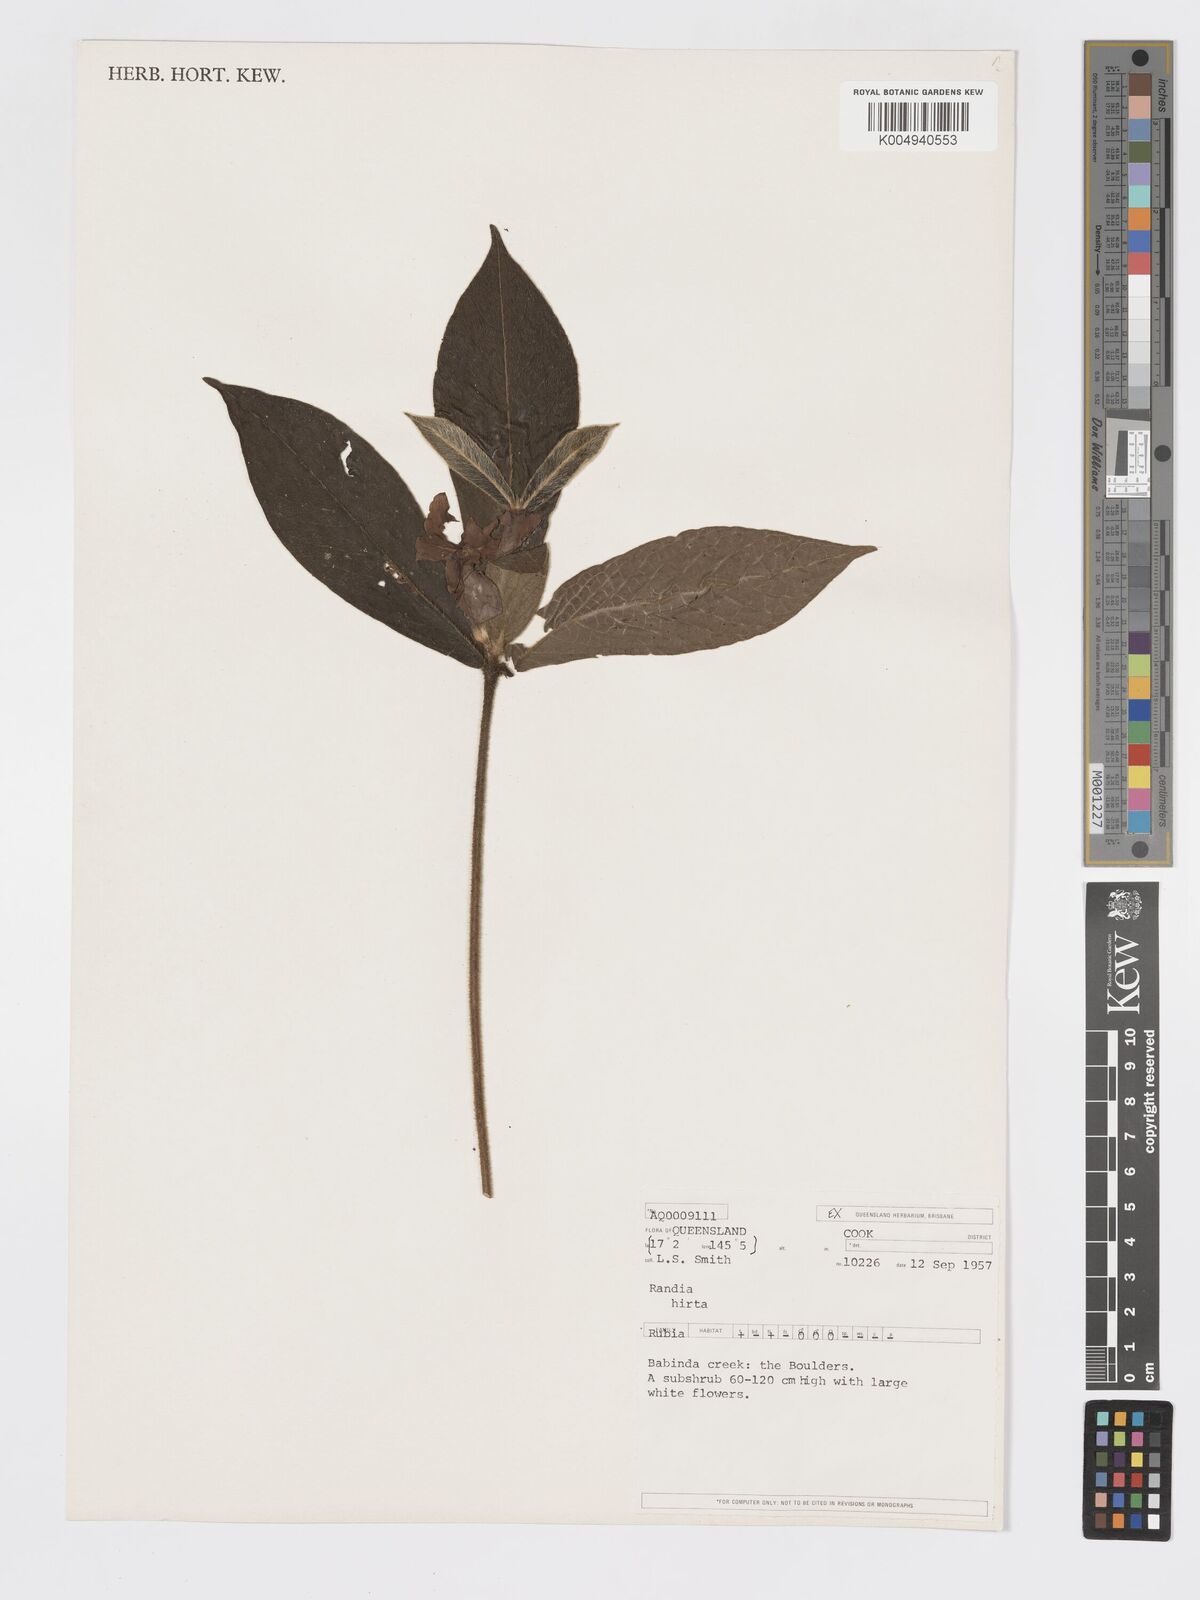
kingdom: Plantae
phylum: Tracheophyta
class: Magnoliopsida
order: Gentianales
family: Rubiaceae
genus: Atractocarpus
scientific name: Atractocarpus hirtus
